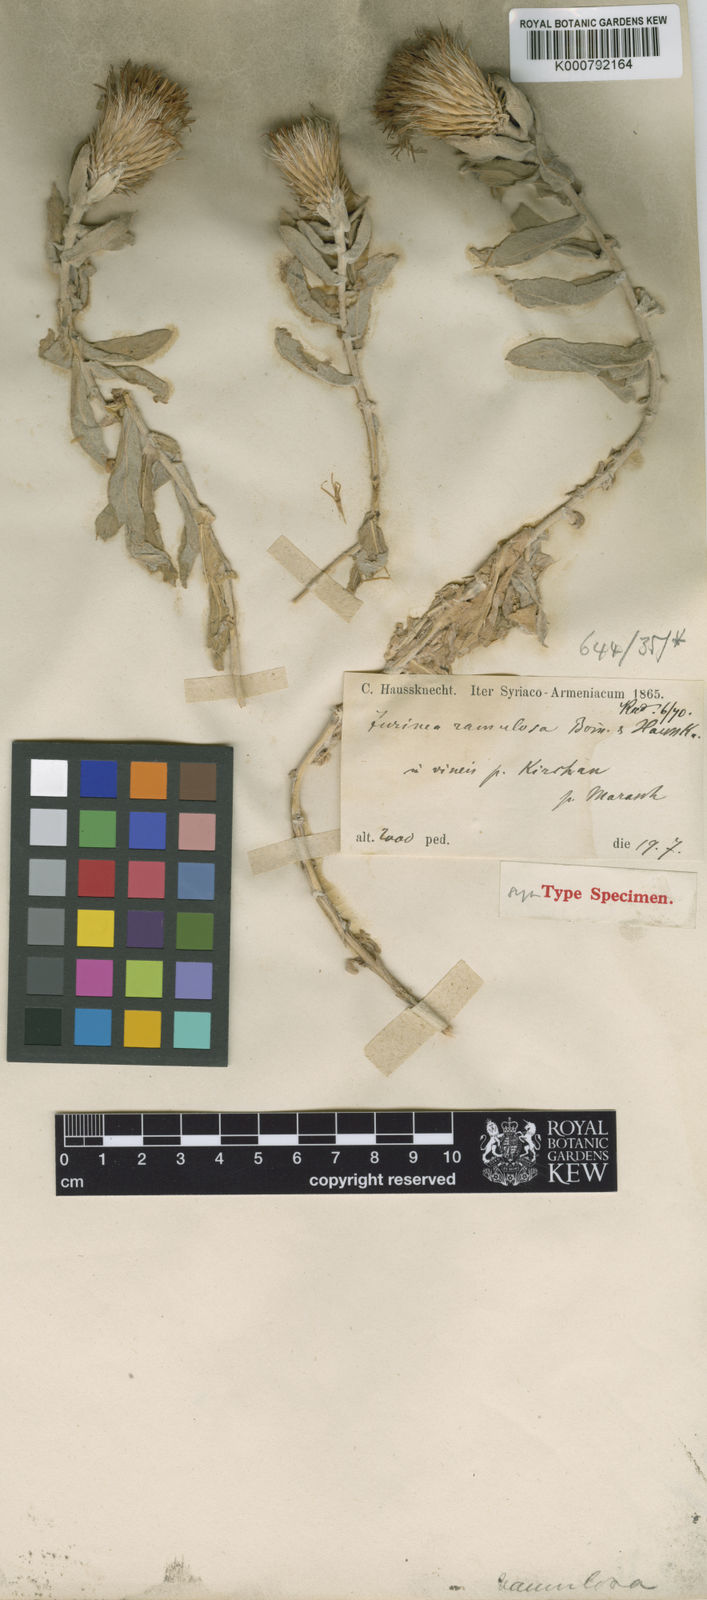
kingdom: Plantae
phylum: Tracheophyta
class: Magnoliopsida
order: Asterales
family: Asteraceae
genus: Jurinea
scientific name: Jurinea ramulosa
